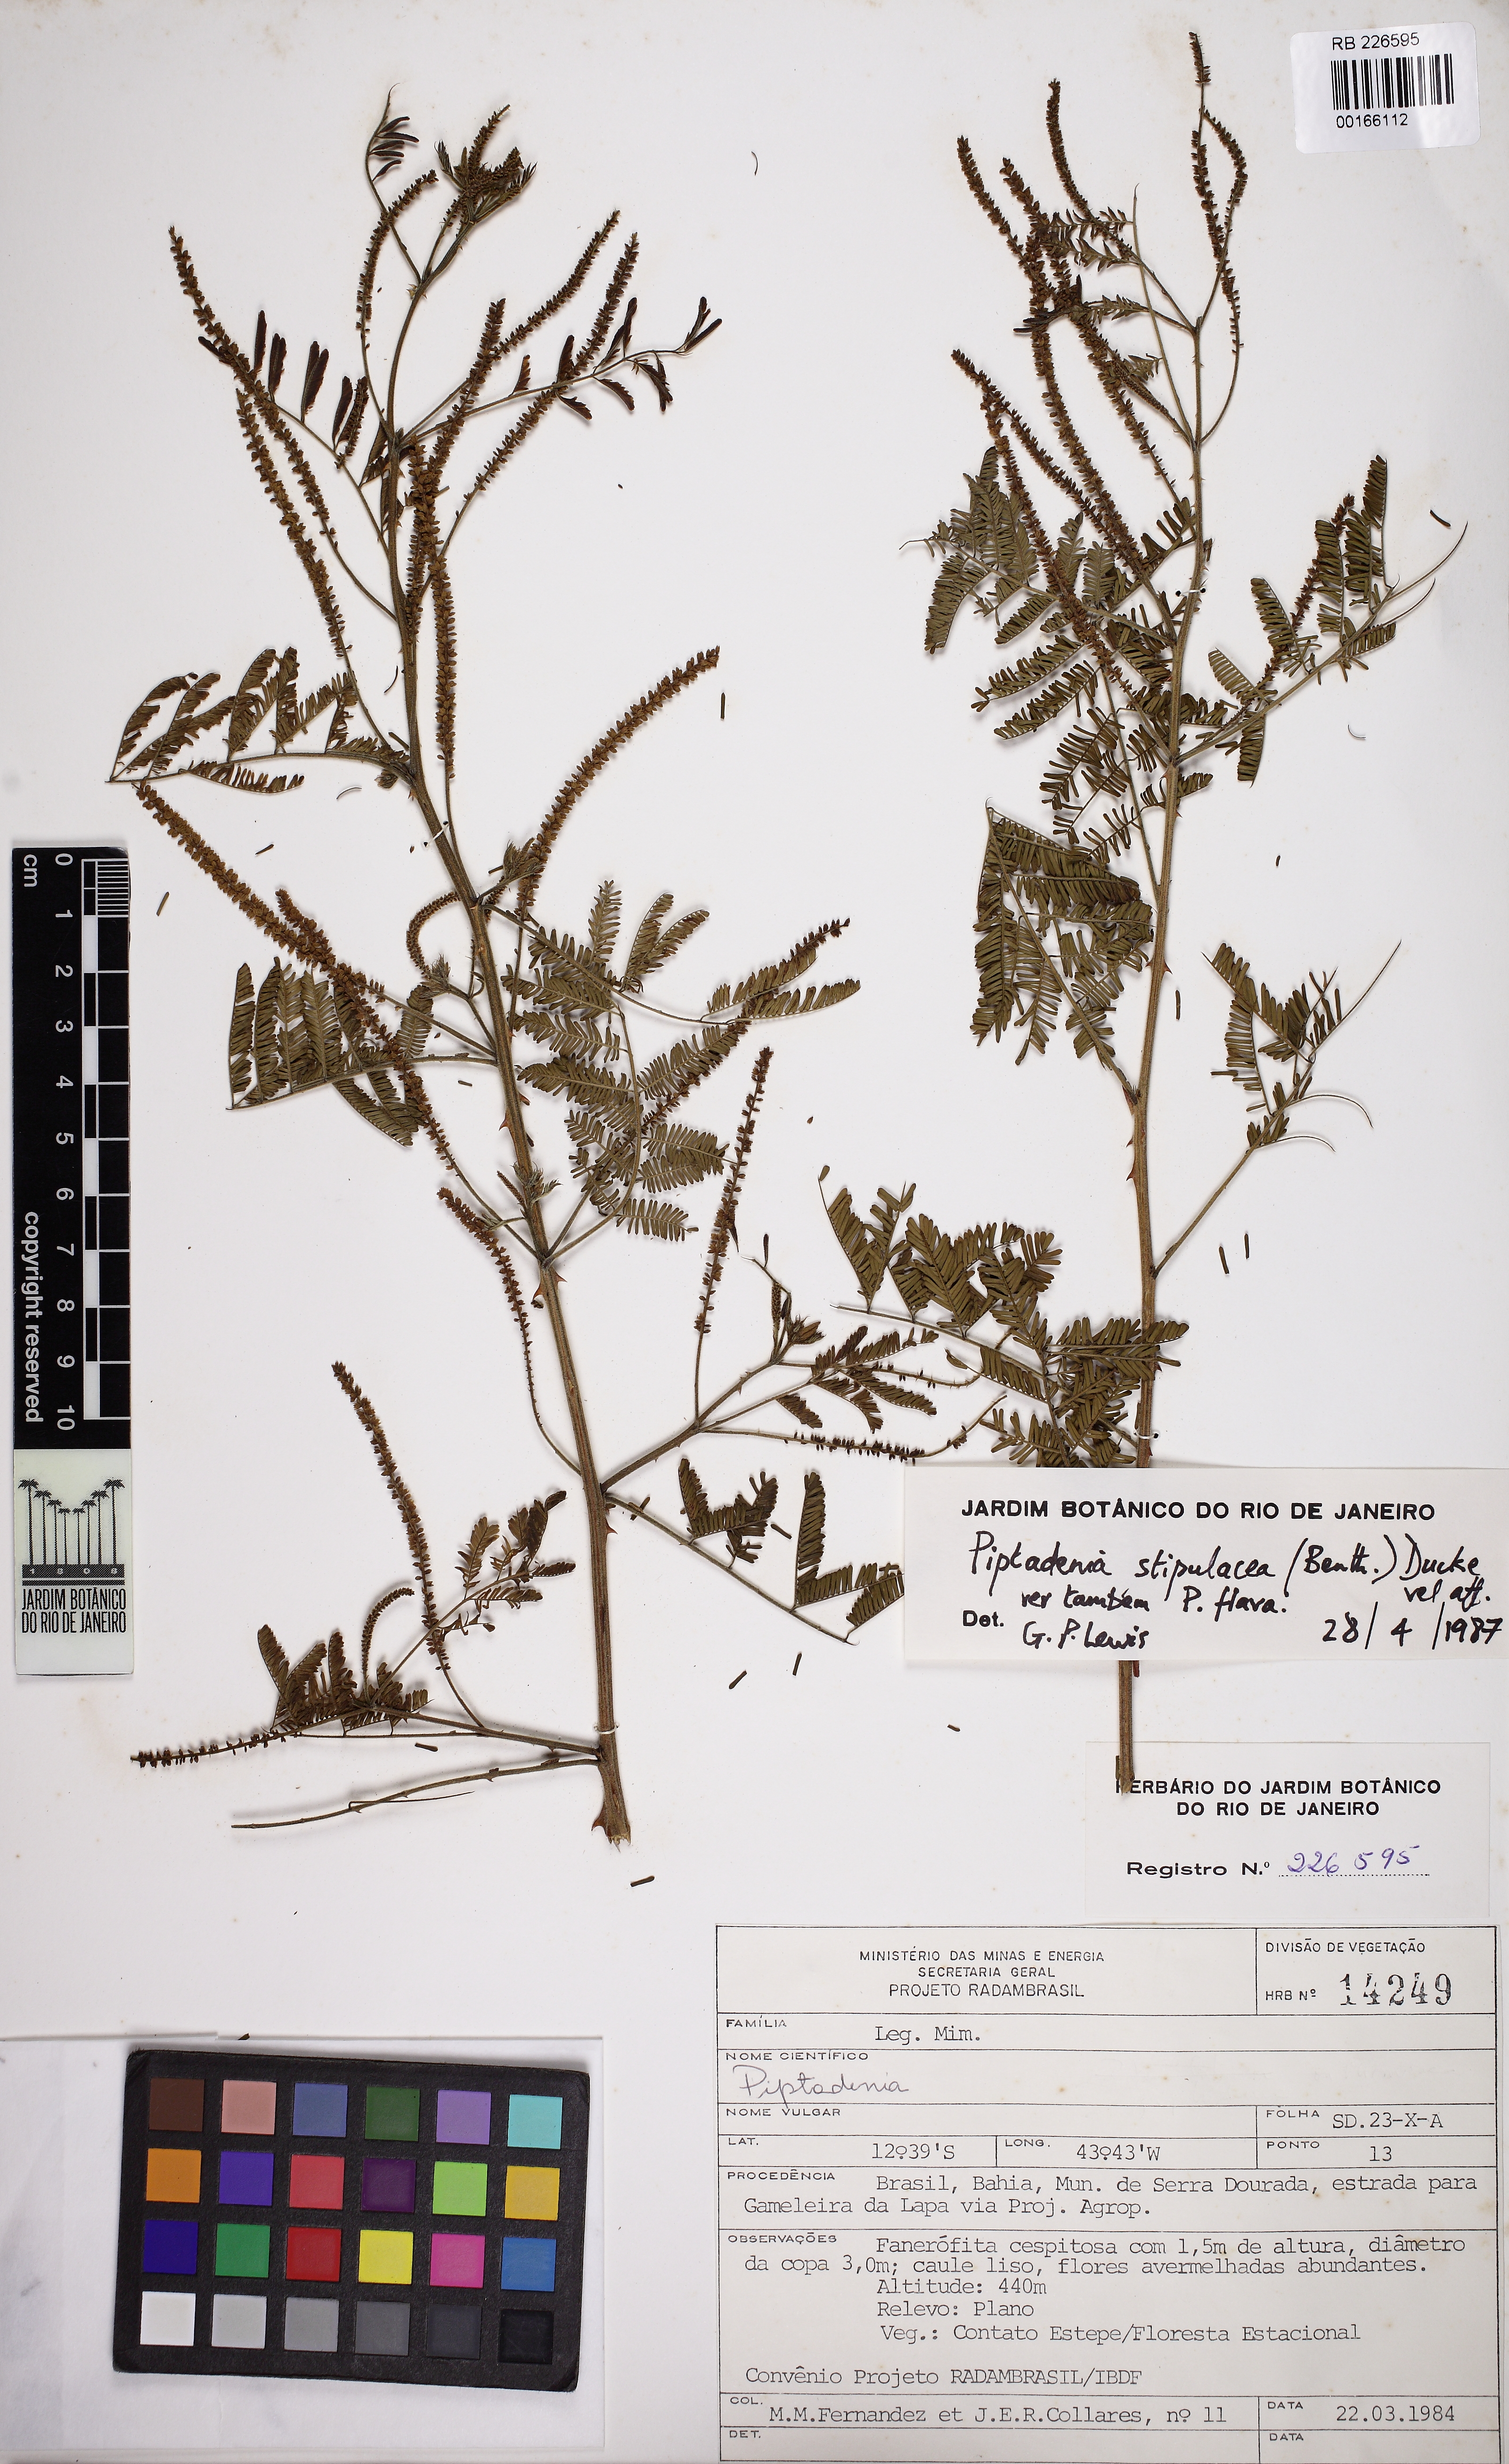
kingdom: Plantae
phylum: Tracheophyta
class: Magnoliopsida
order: Fabales
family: Fabaceae
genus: Piptadenia
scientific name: Piptadenia retusa
